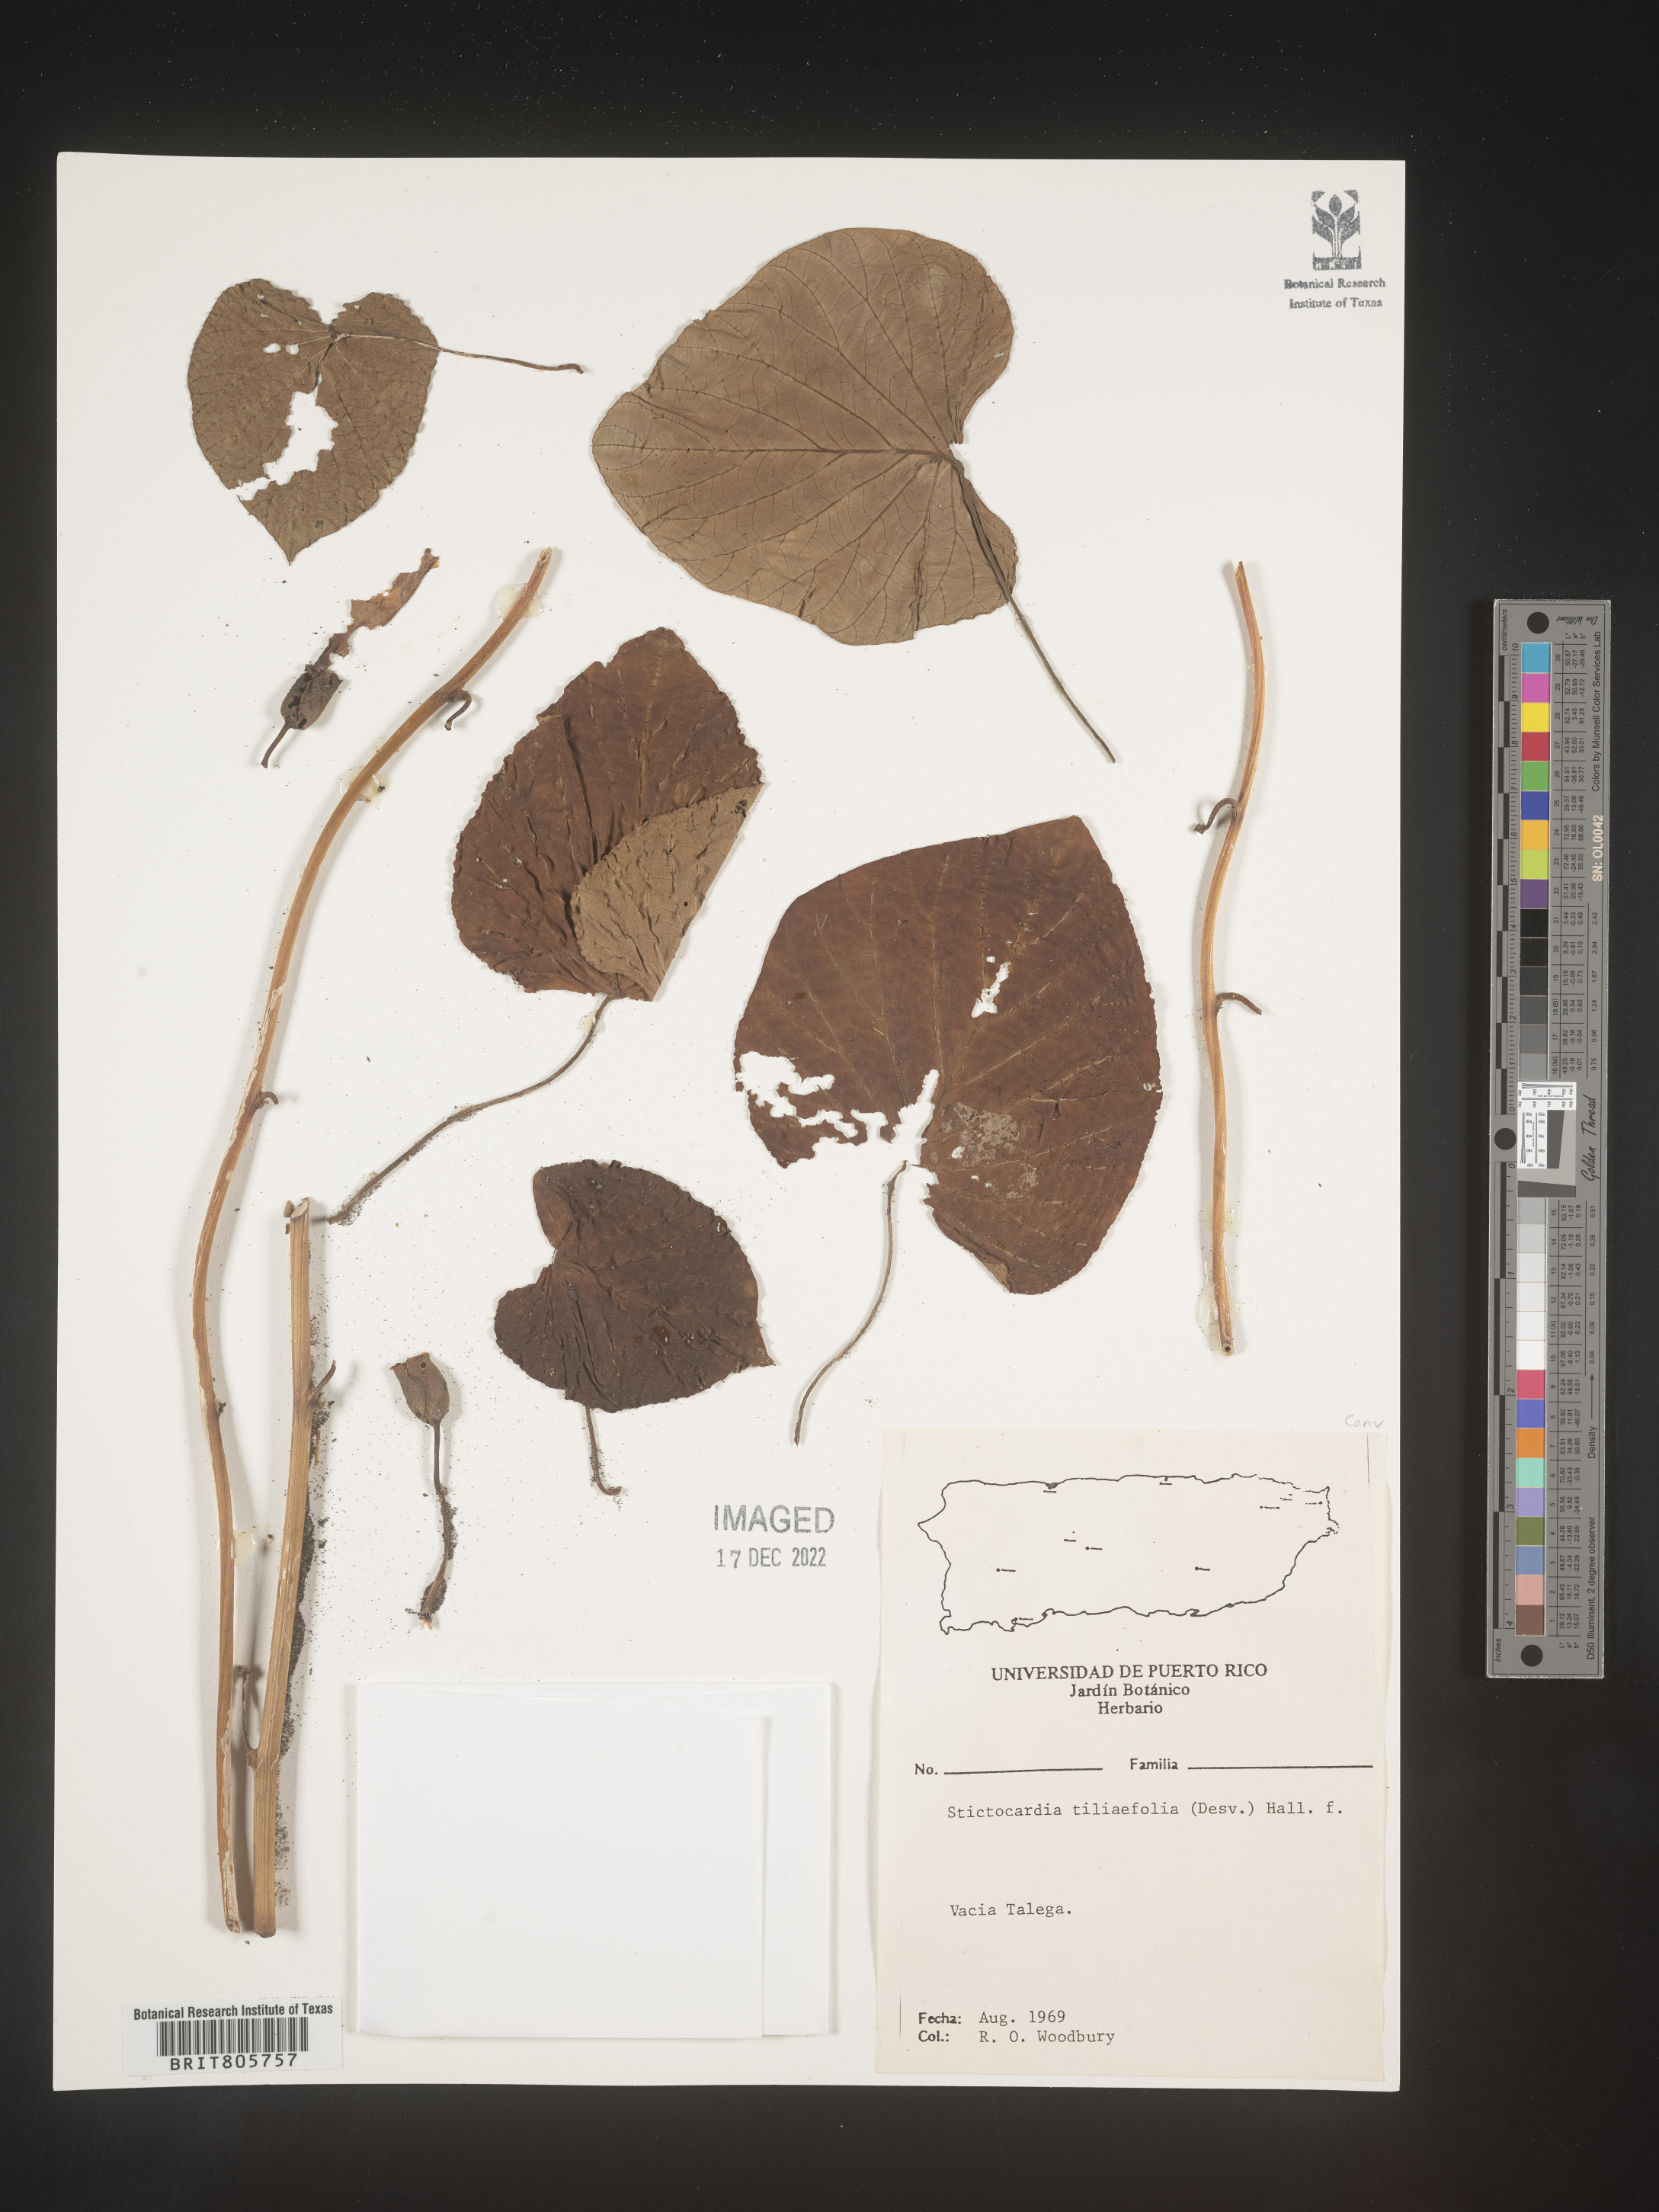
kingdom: Plantae
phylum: Tracheophyta
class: Magnoliopsida
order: Solanales
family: Convolvulaceae
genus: Rivea
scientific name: Rivea
